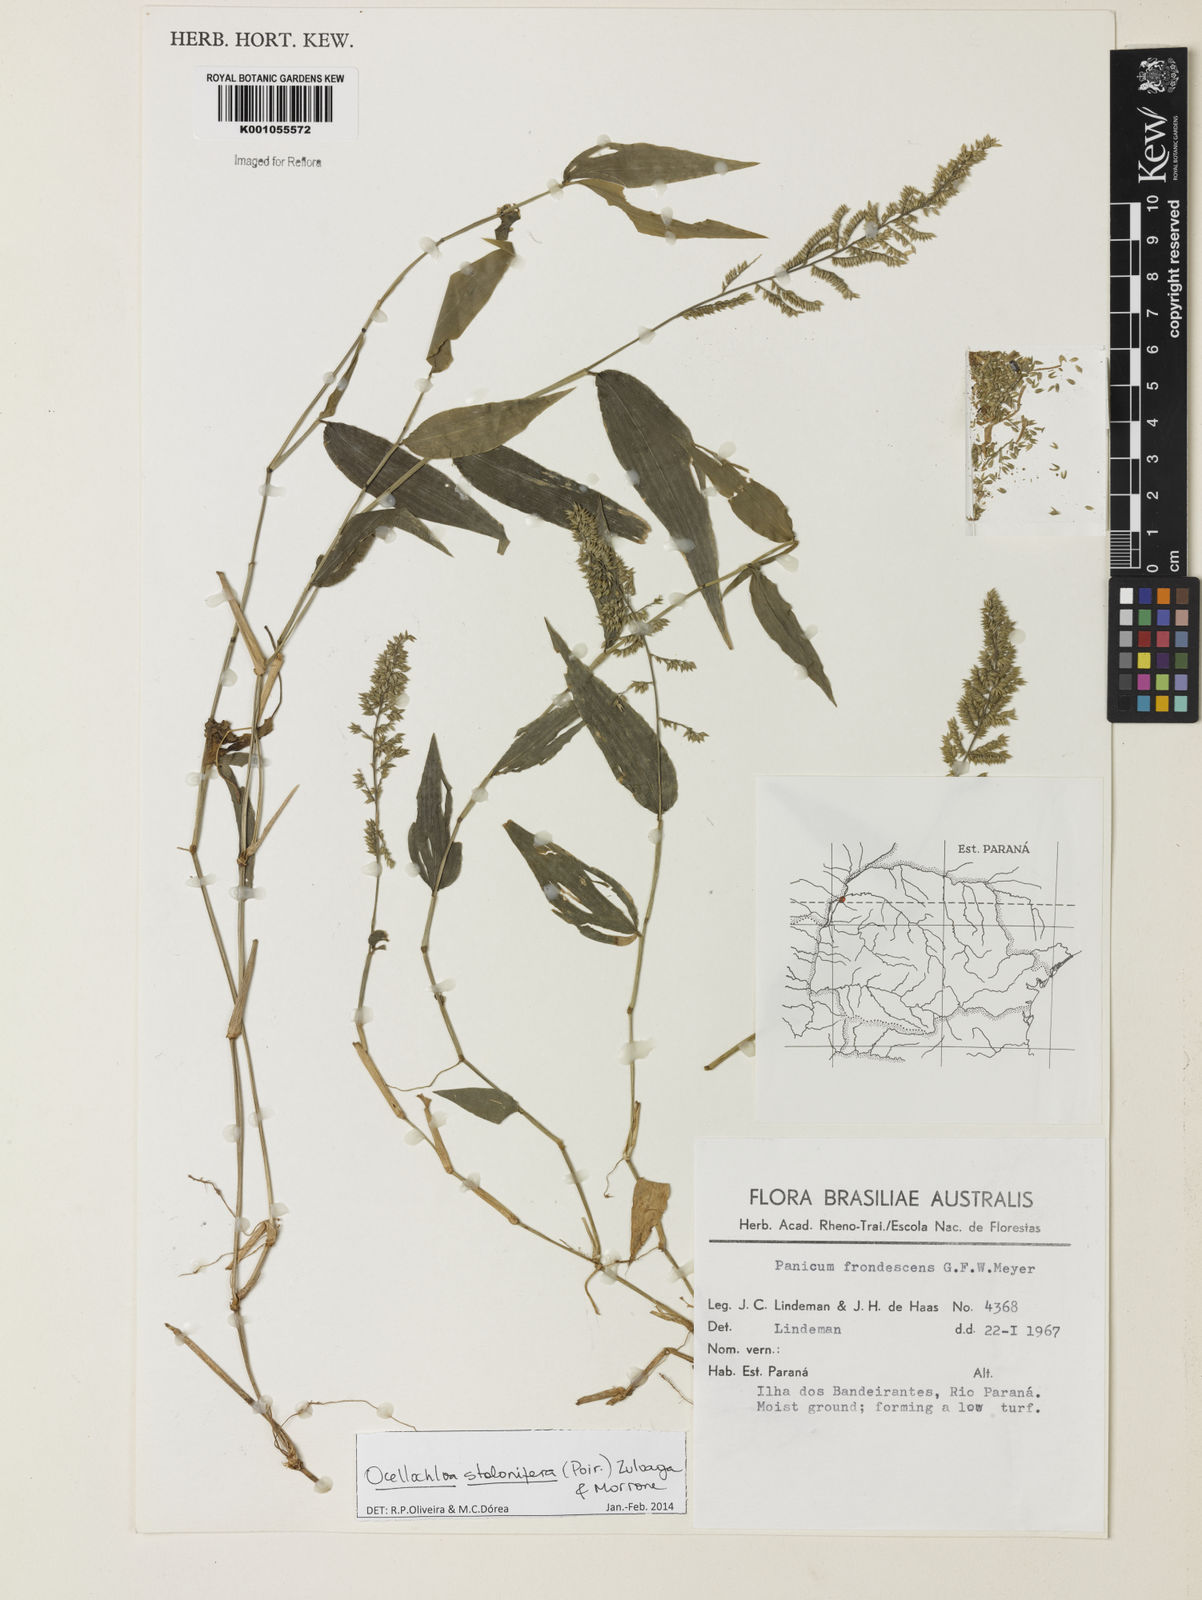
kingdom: Plantae
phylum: Tracheophyta
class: Liliopsida
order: Poales
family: Poaceae
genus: Ocellochloa
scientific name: Ocellochloa stolonifera
